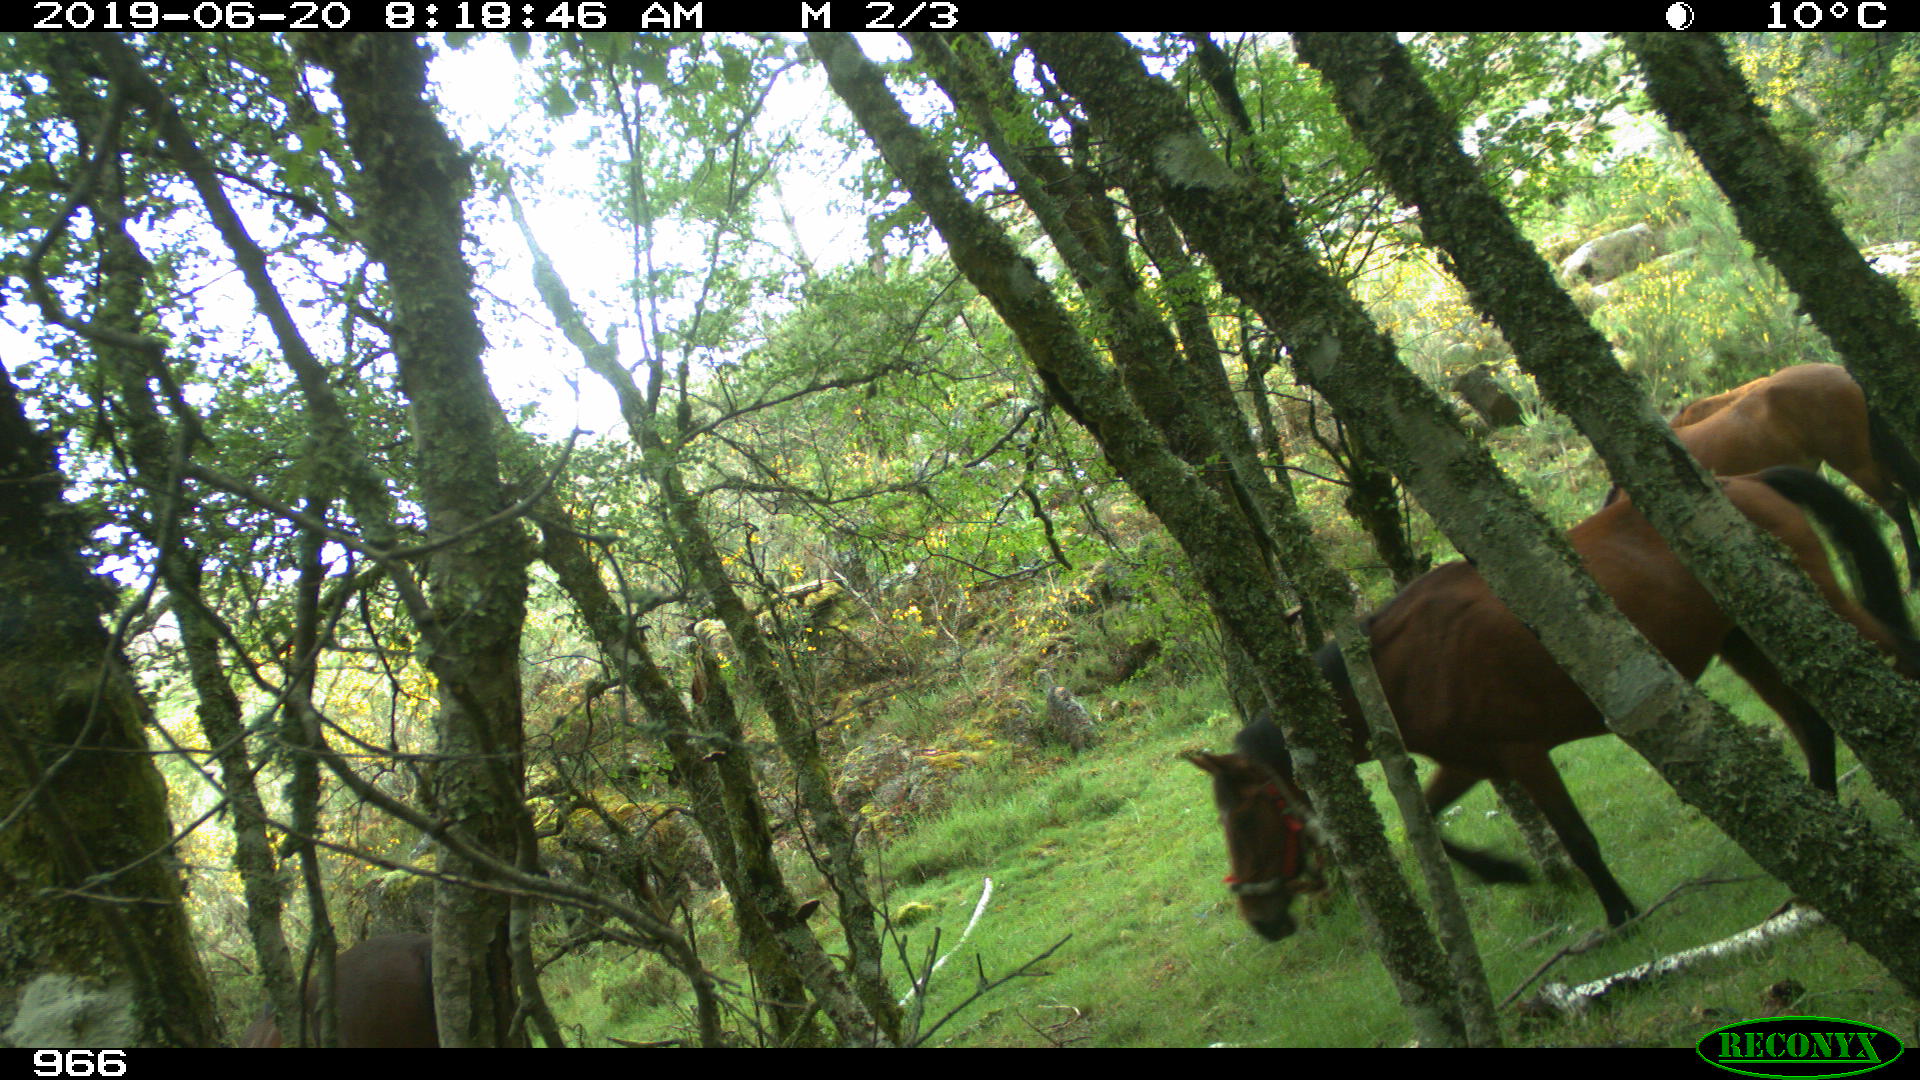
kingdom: Animalia
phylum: Chordata
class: Mammalia
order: Perissodactyla
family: Equidae
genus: Equus
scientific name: Equus caballus
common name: Horse
